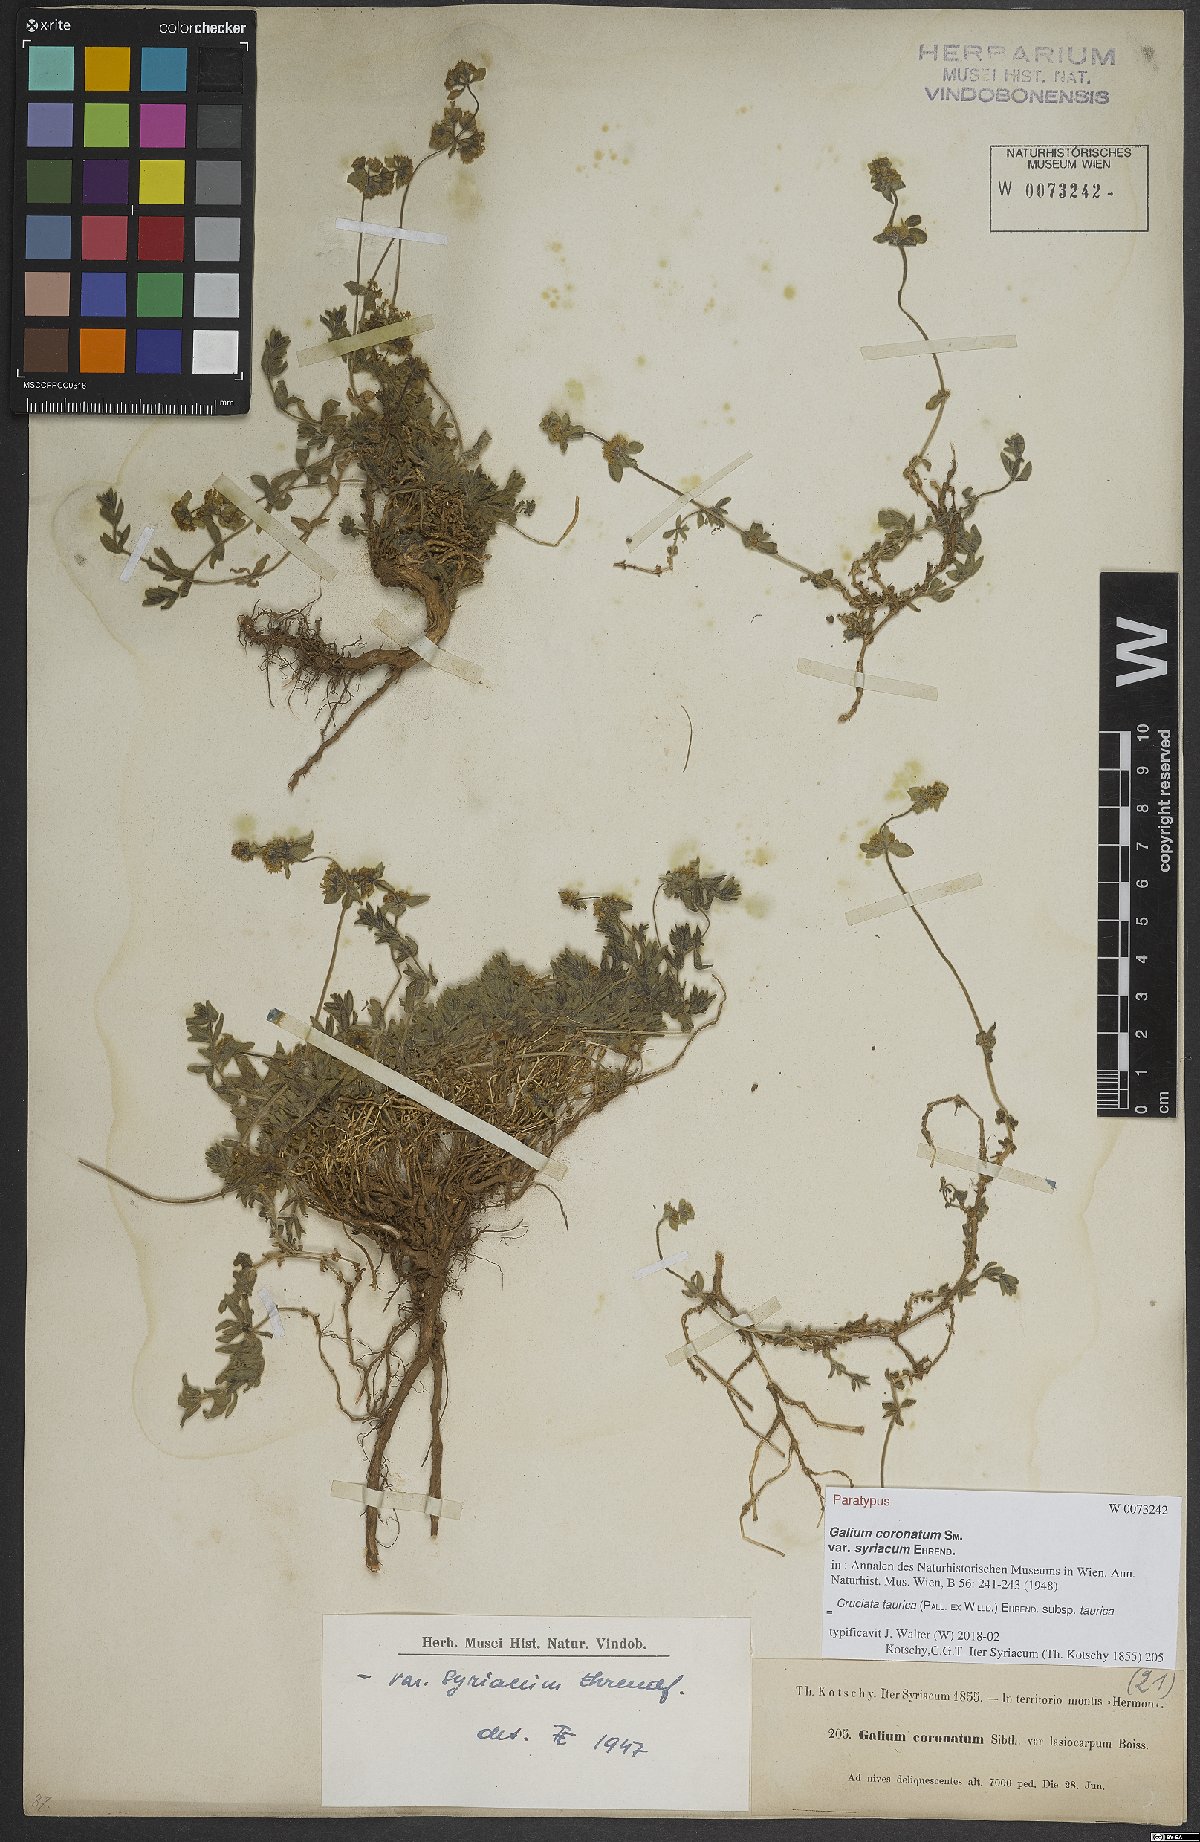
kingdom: Plantae
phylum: Tracheophyta
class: Magnoliopsida
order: Gentianales
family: Rubiaceae
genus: Cruciata
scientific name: Cruciata taurica
